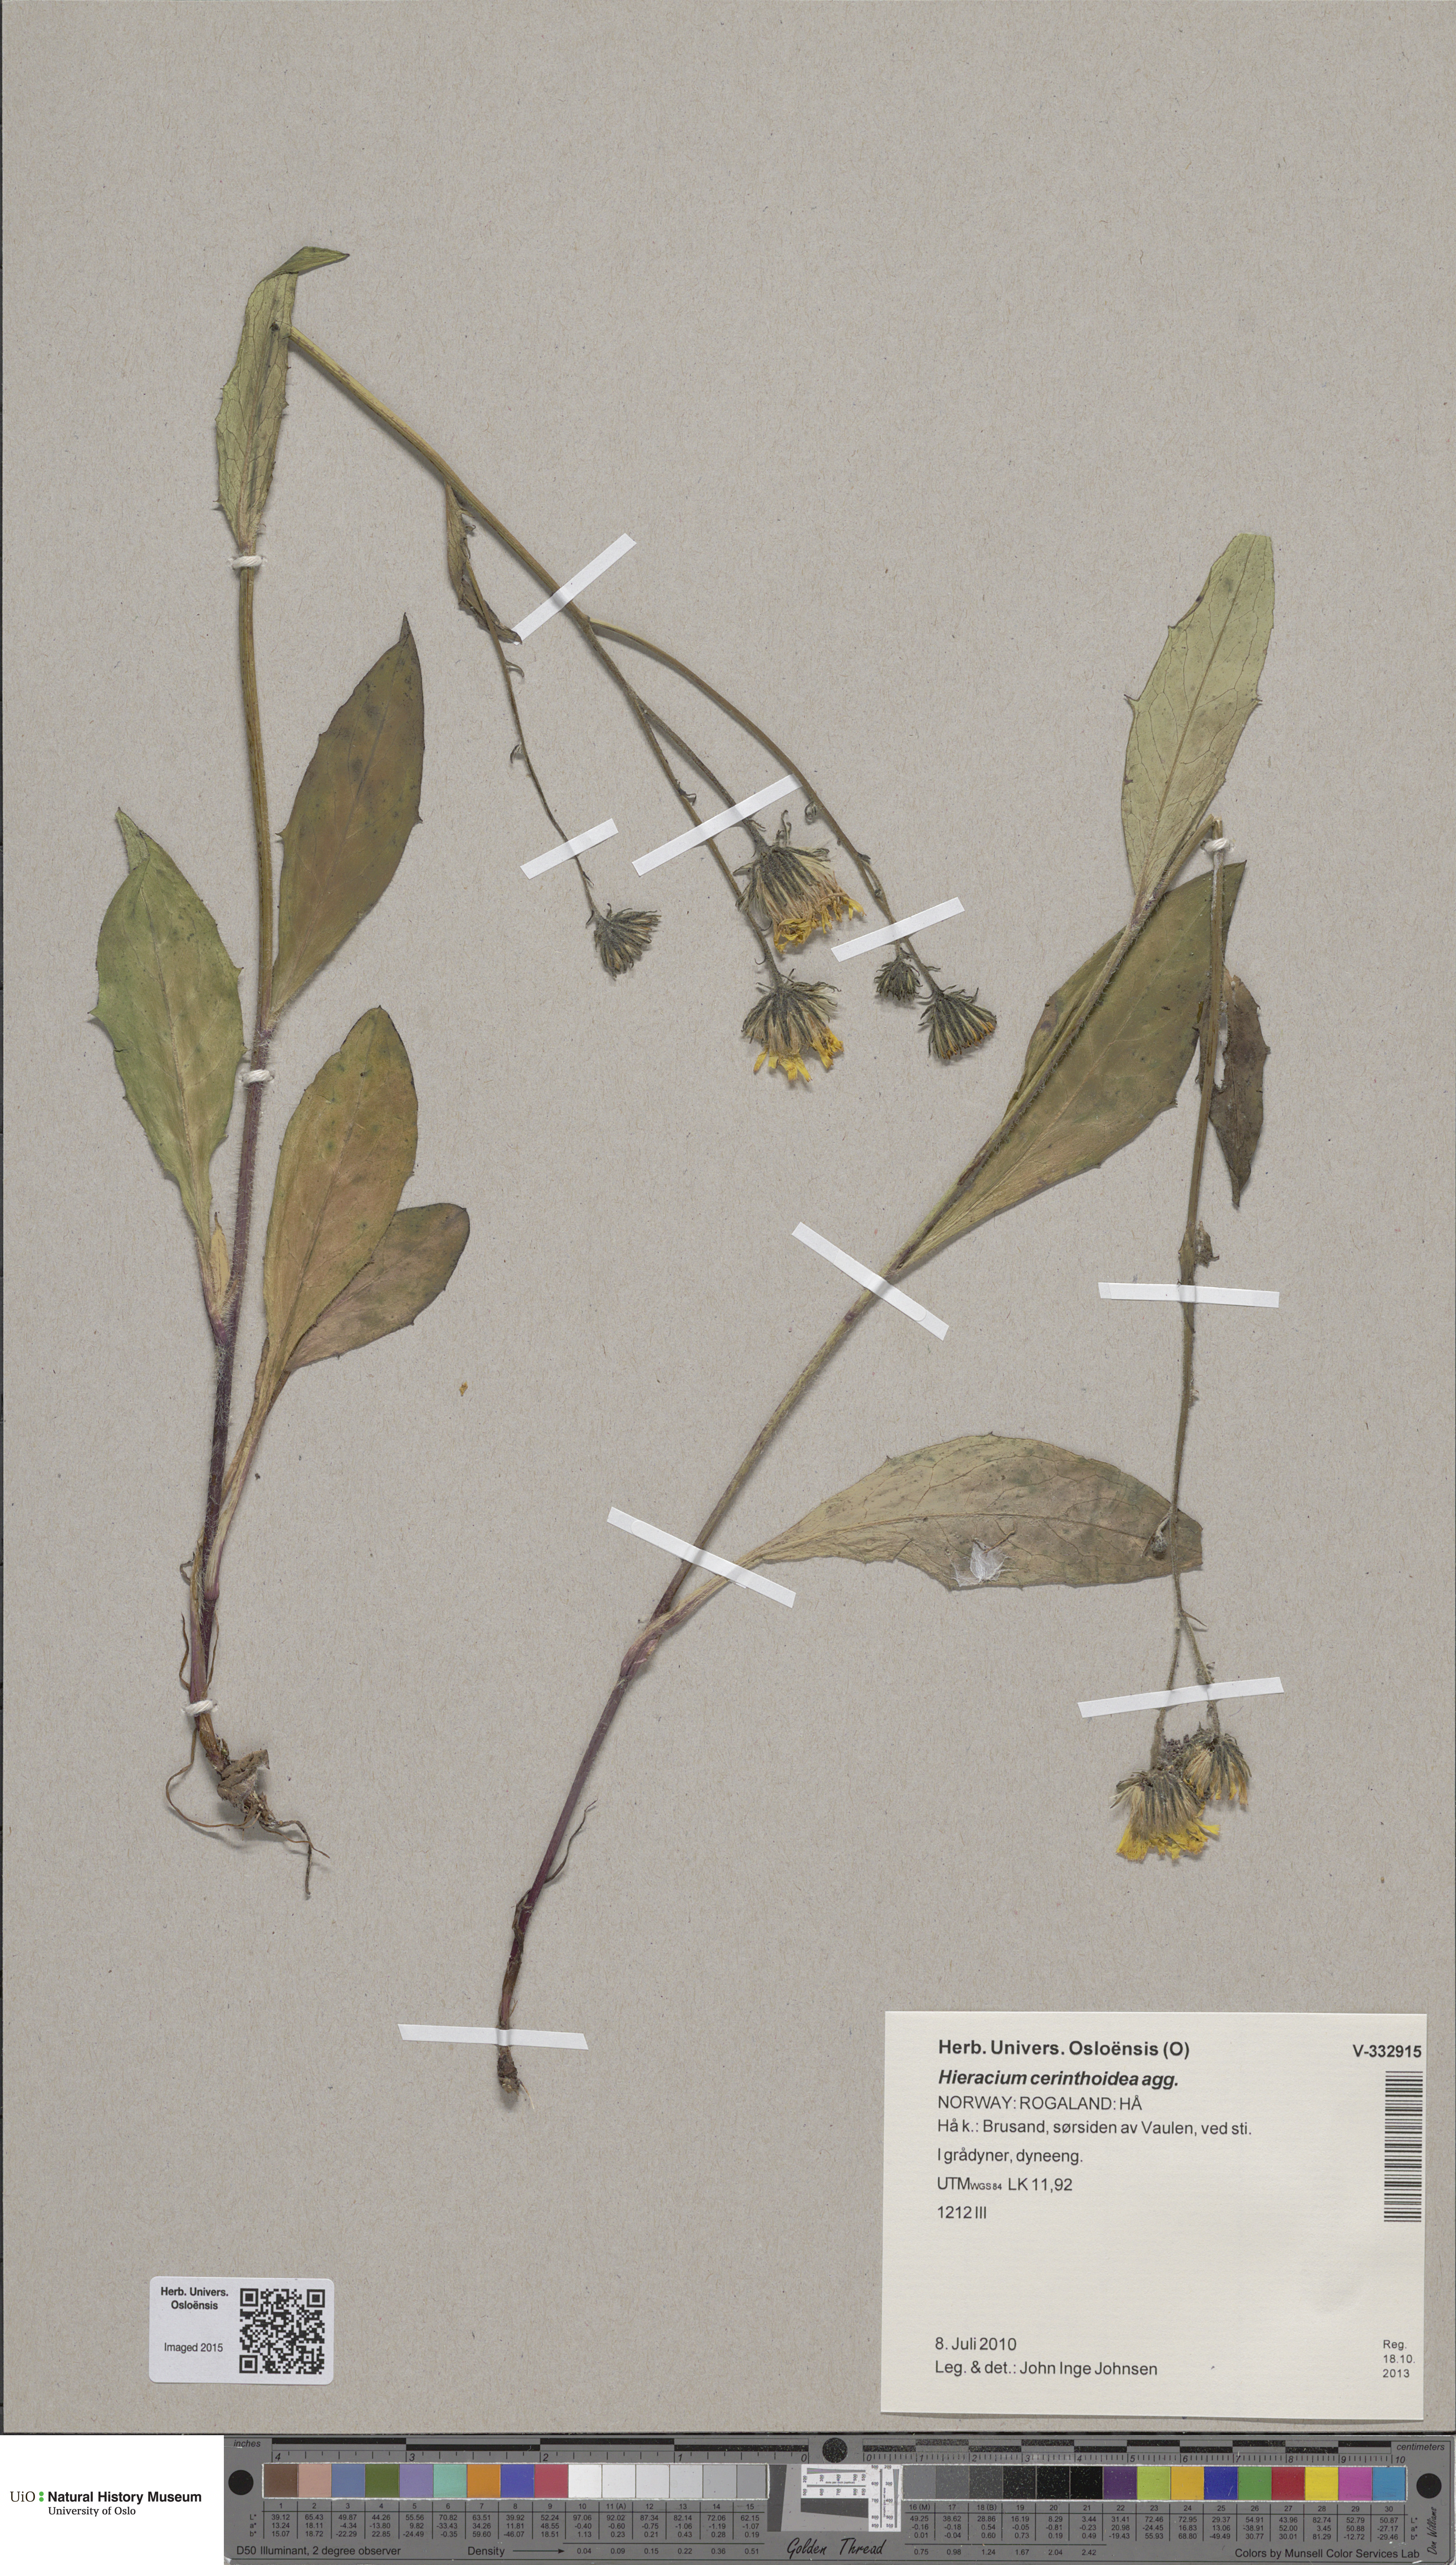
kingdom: Plantae
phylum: Tracheophyta
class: Magnoliopsida
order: Asterales
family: Asteraceae
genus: Hieracium
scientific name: Hieracium cerinthoides
